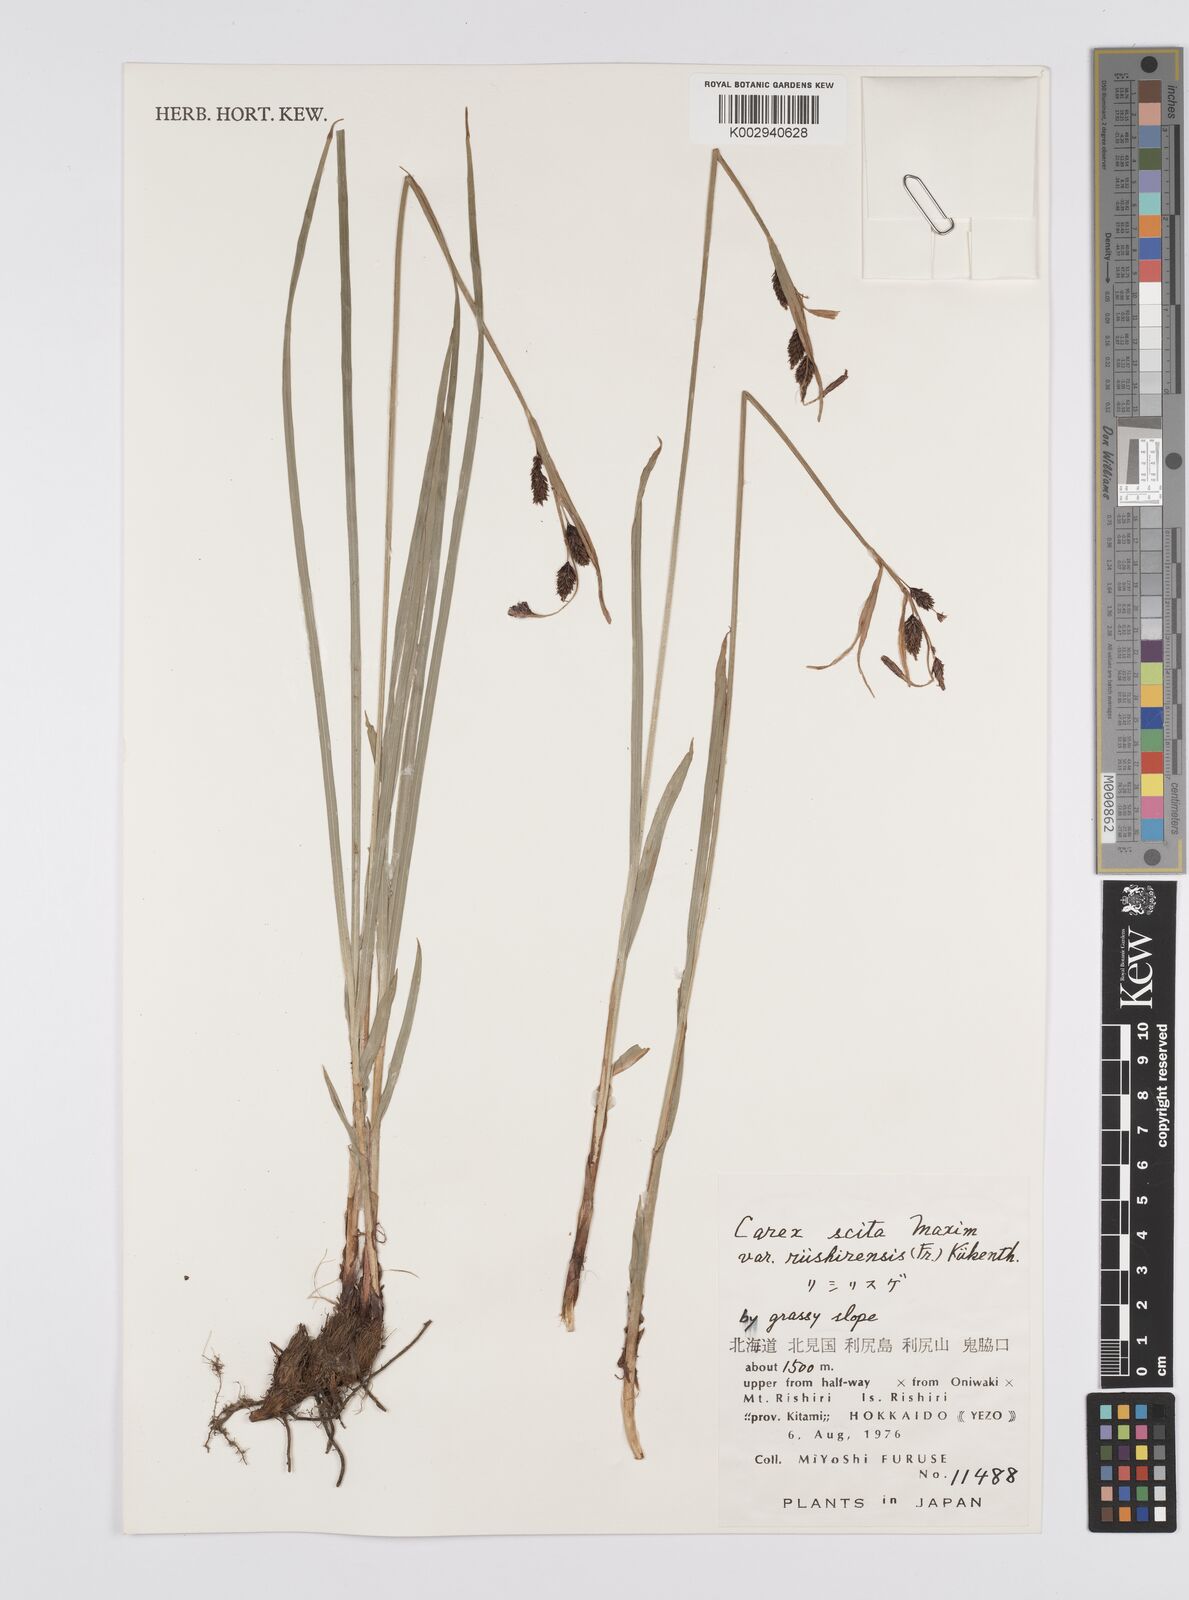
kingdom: Plantae
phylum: Tracheophyta
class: Liliopsida
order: Poales
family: Cyperaceae
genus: Carex
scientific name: Carex scita
